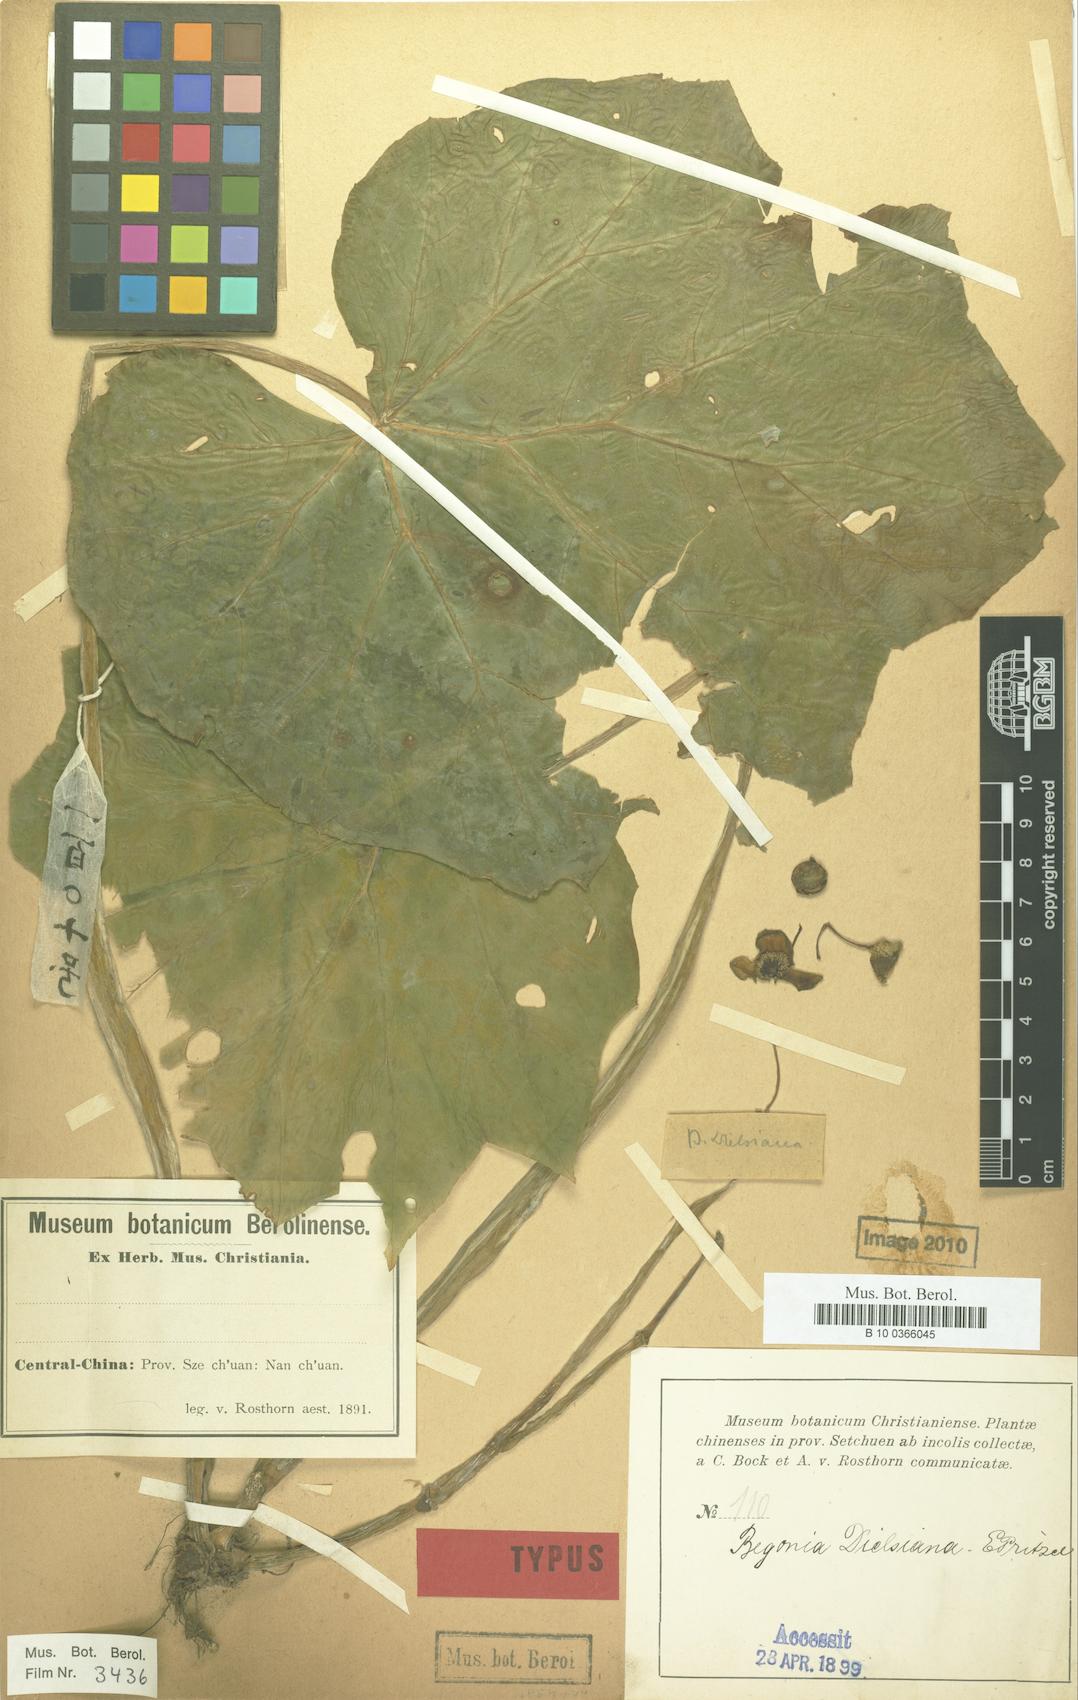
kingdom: Plantae
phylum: Tracheophyta
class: Magnoliopsida
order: Cucurbitales
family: Begoniaceae
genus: Begonia
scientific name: Begonia dielsiana
